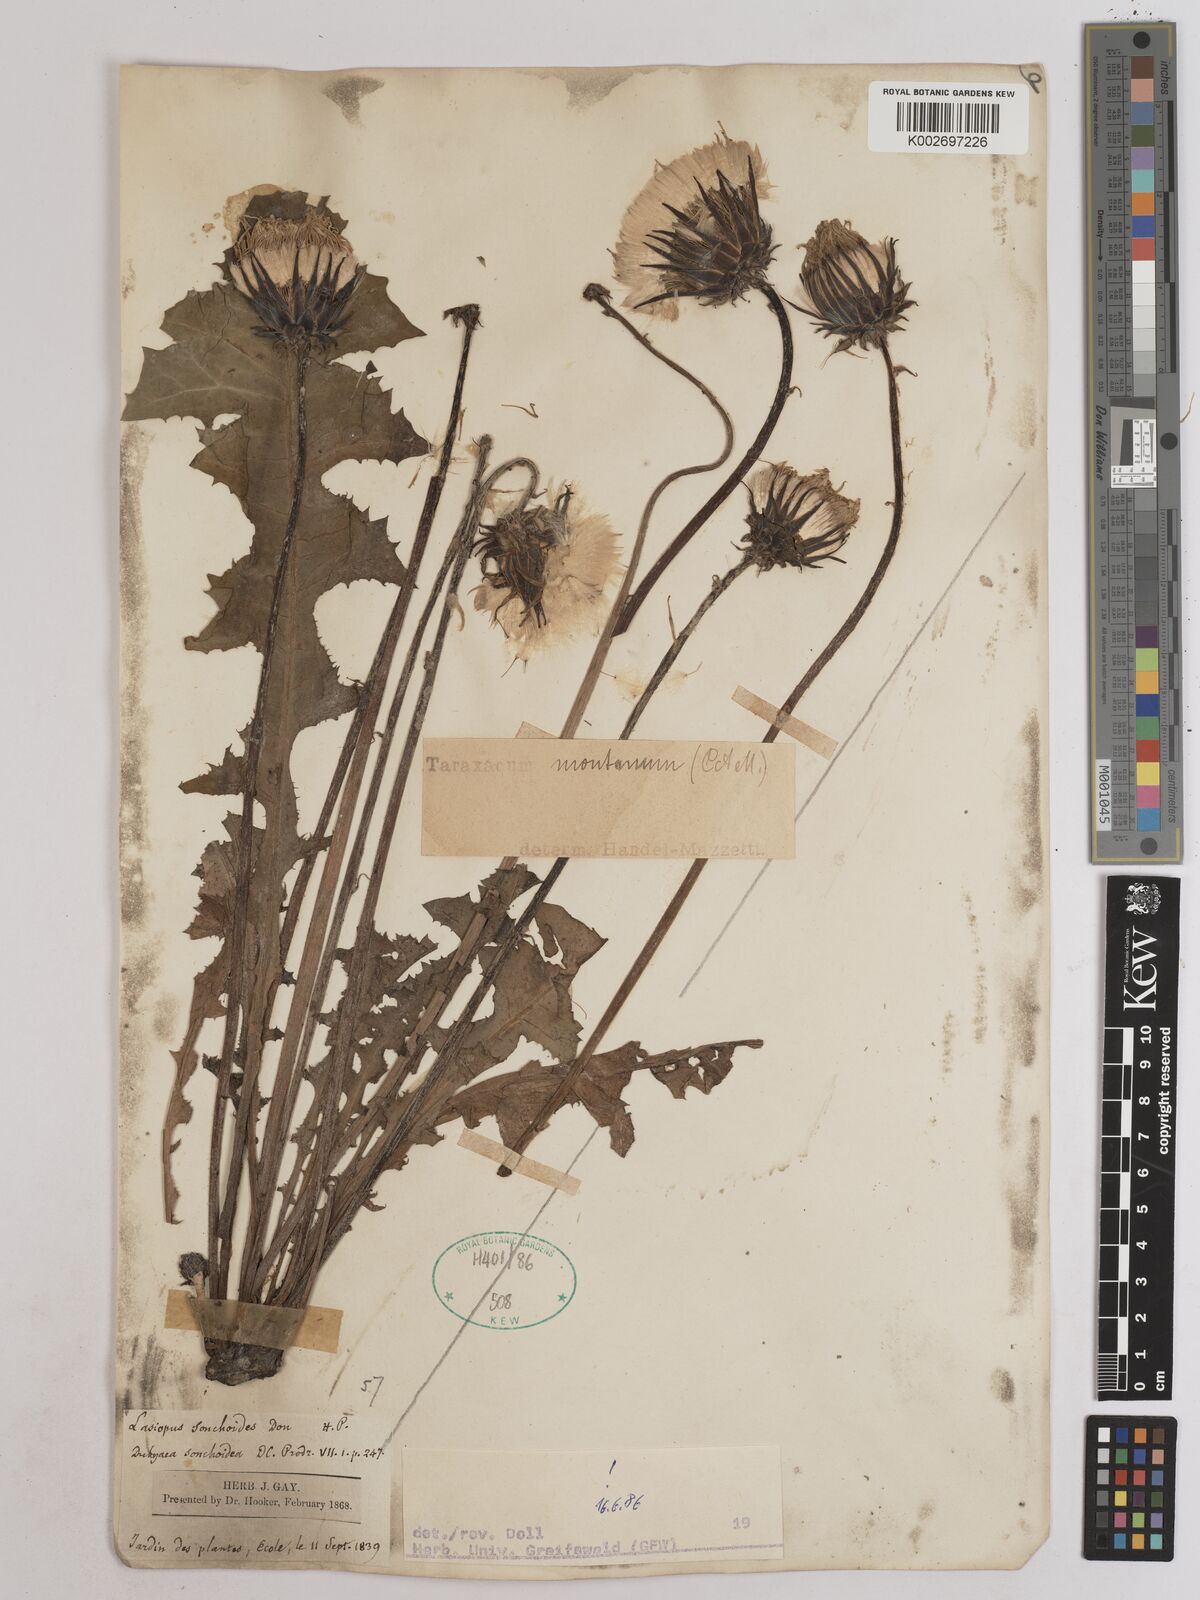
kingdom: Plantae
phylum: Tracheophyta
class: Magnoliopsida
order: Asterales
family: Asteraceae
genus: Taraxacum
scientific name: Taraxacum sonchoides
